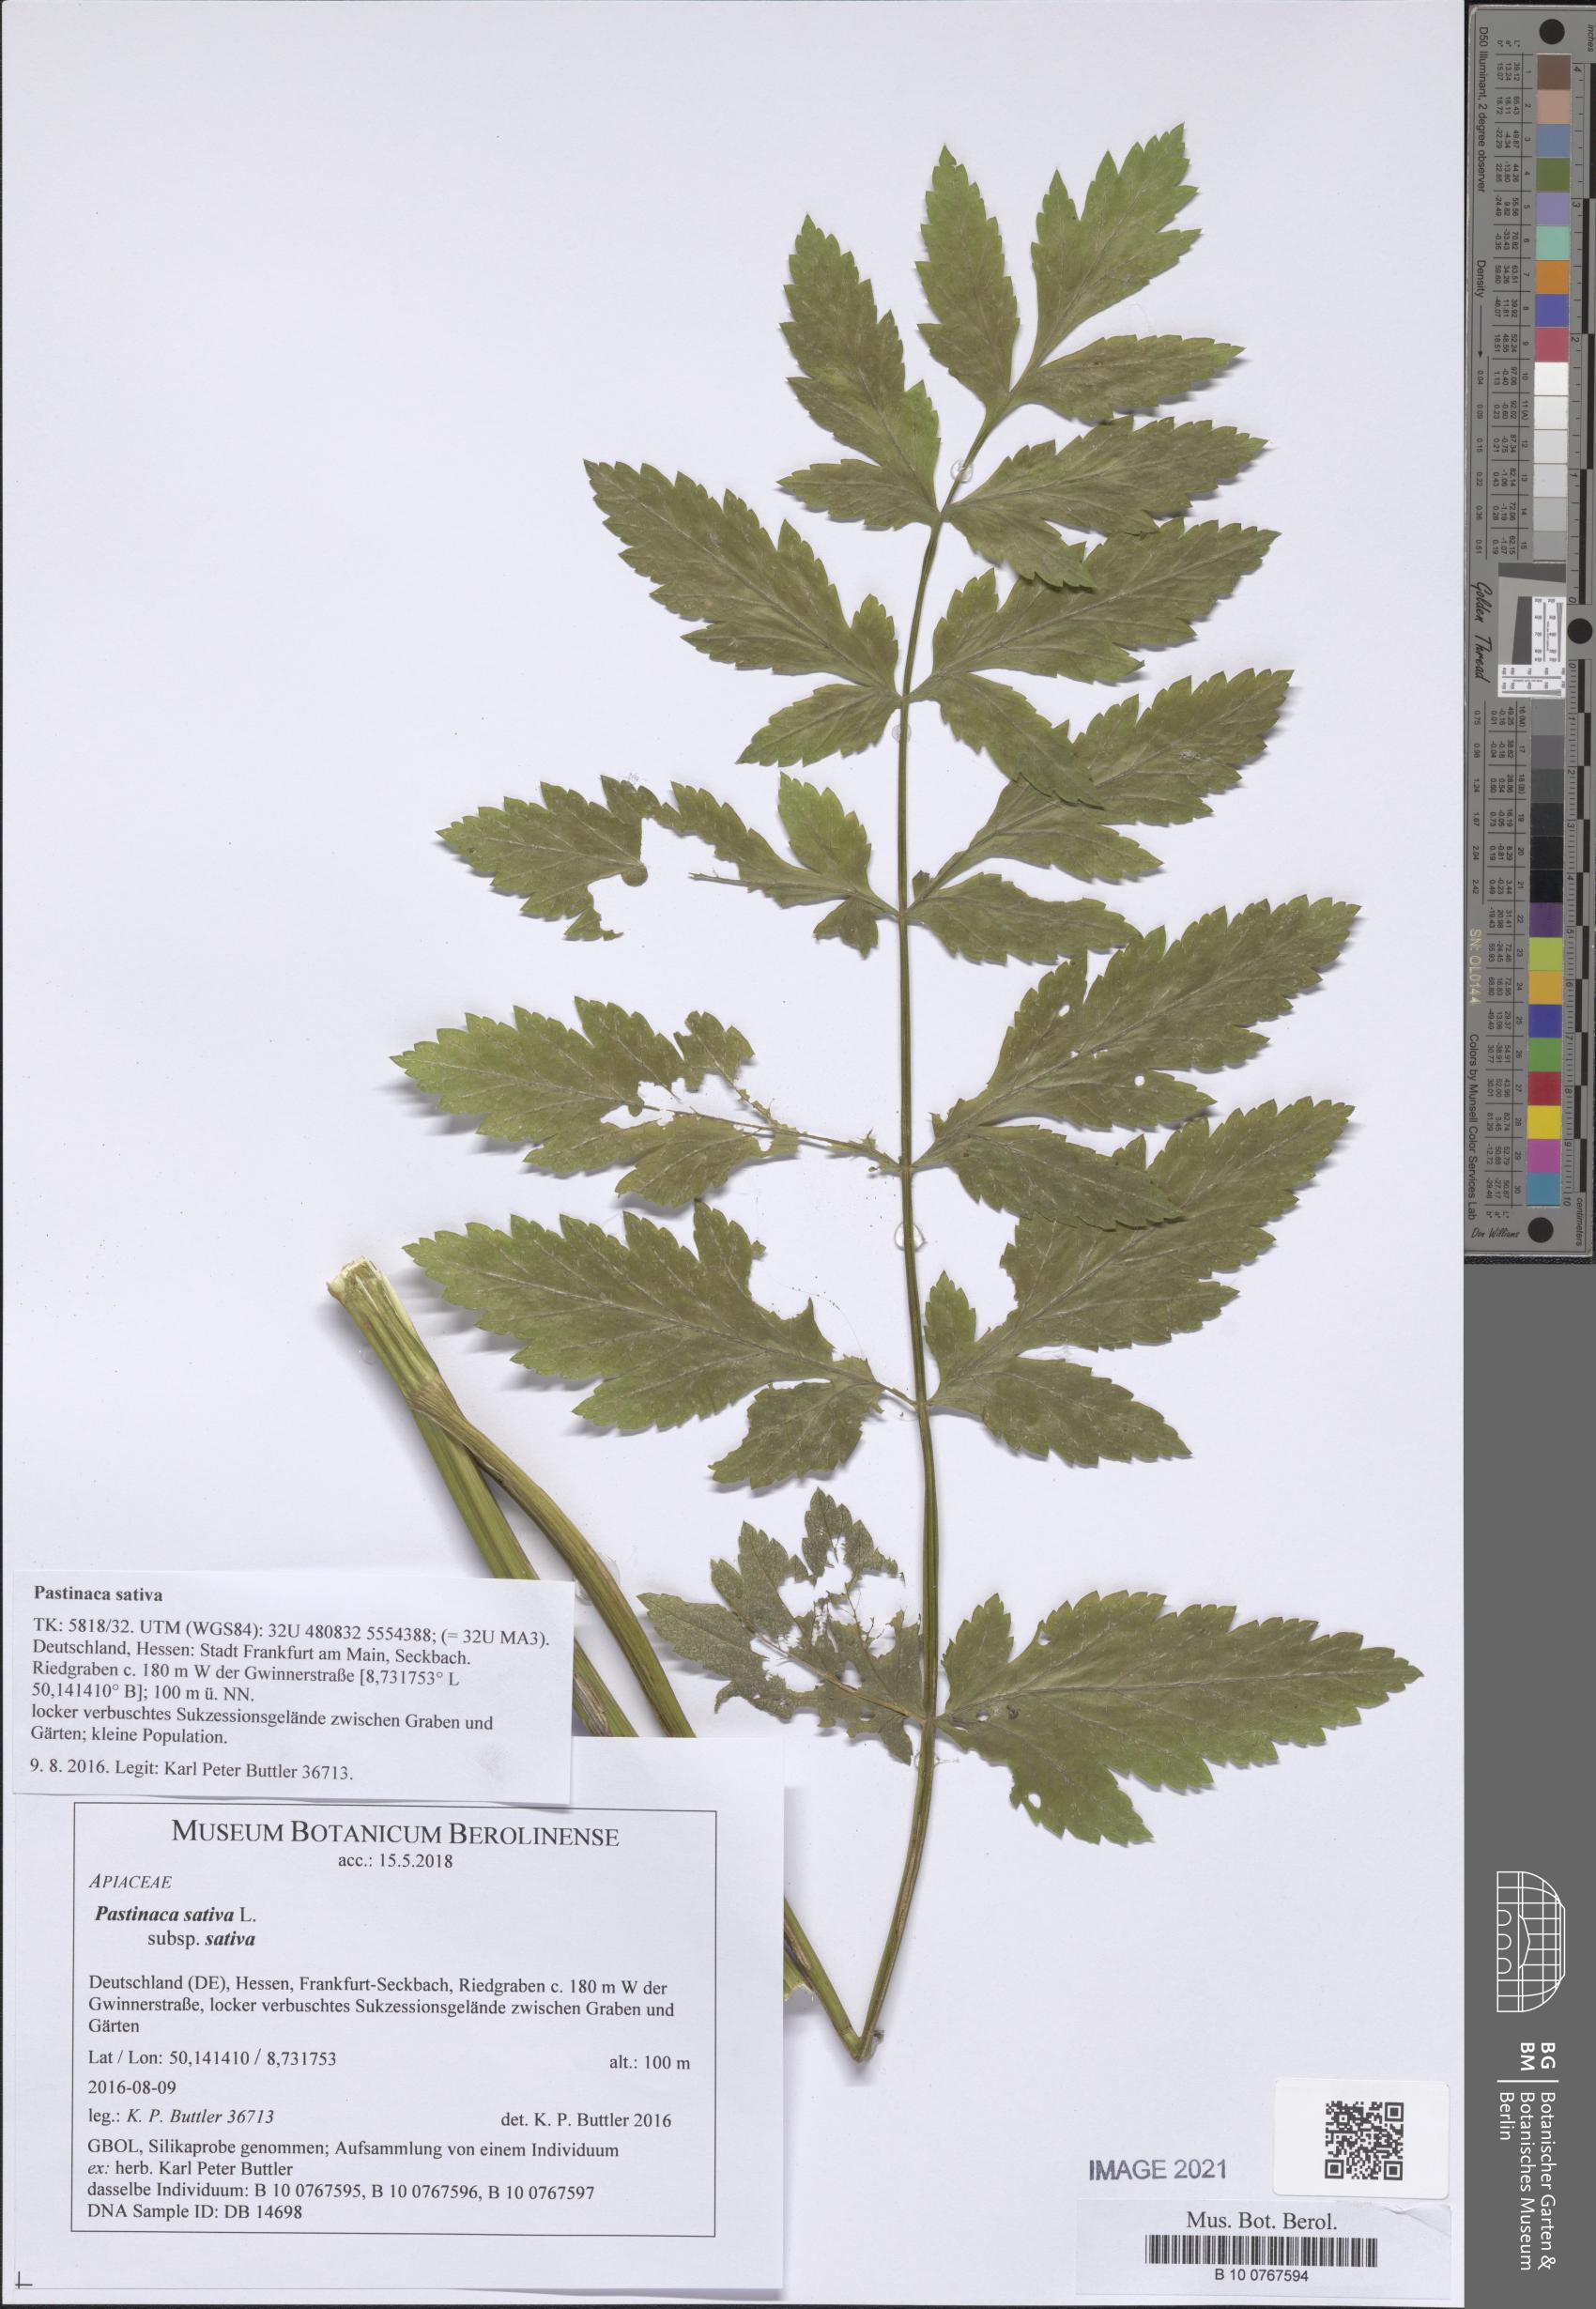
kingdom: Plantae
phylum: Tracheophyta
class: Magnoliopsida
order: Apiales
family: Apiaceae
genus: Pastinaca
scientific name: Pastinaca sativa
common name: Wild parsnip
